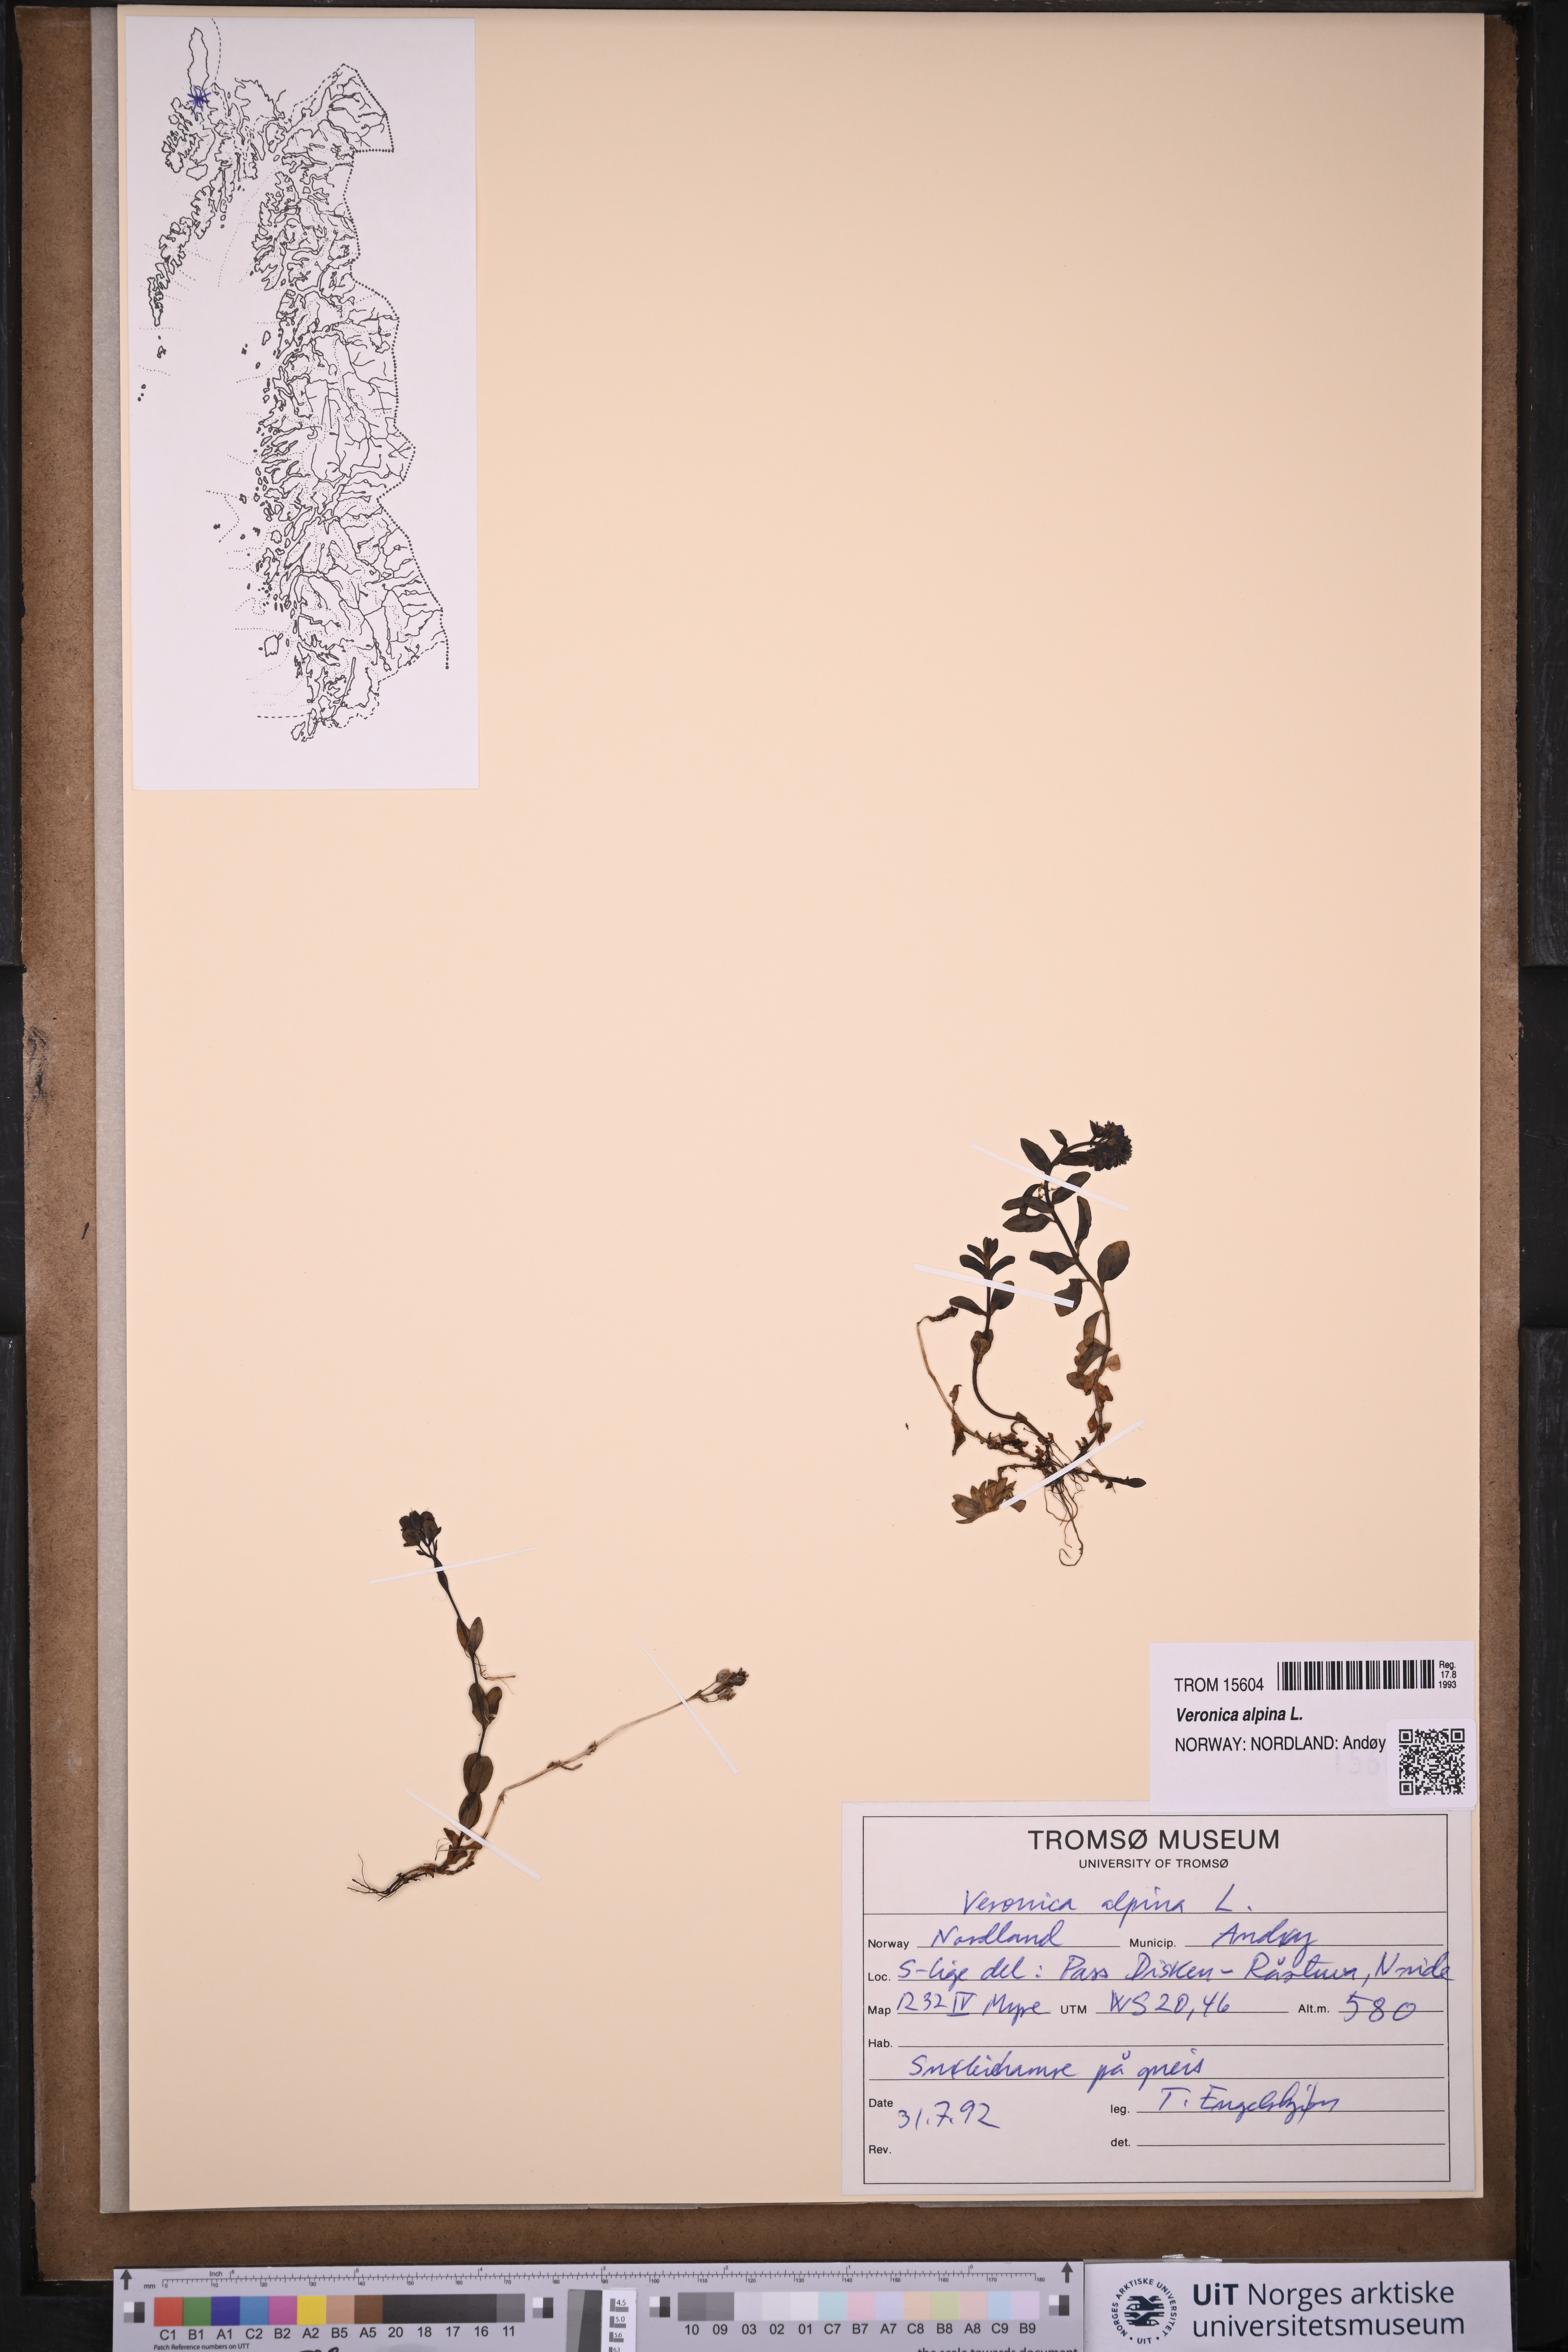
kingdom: Plantae
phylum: Tracheophyta
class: Magnoliopsida
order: Lamiales
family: Plantaginaceae
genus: Veronica
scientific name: Veronica alpina
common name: Alpine speedwell
